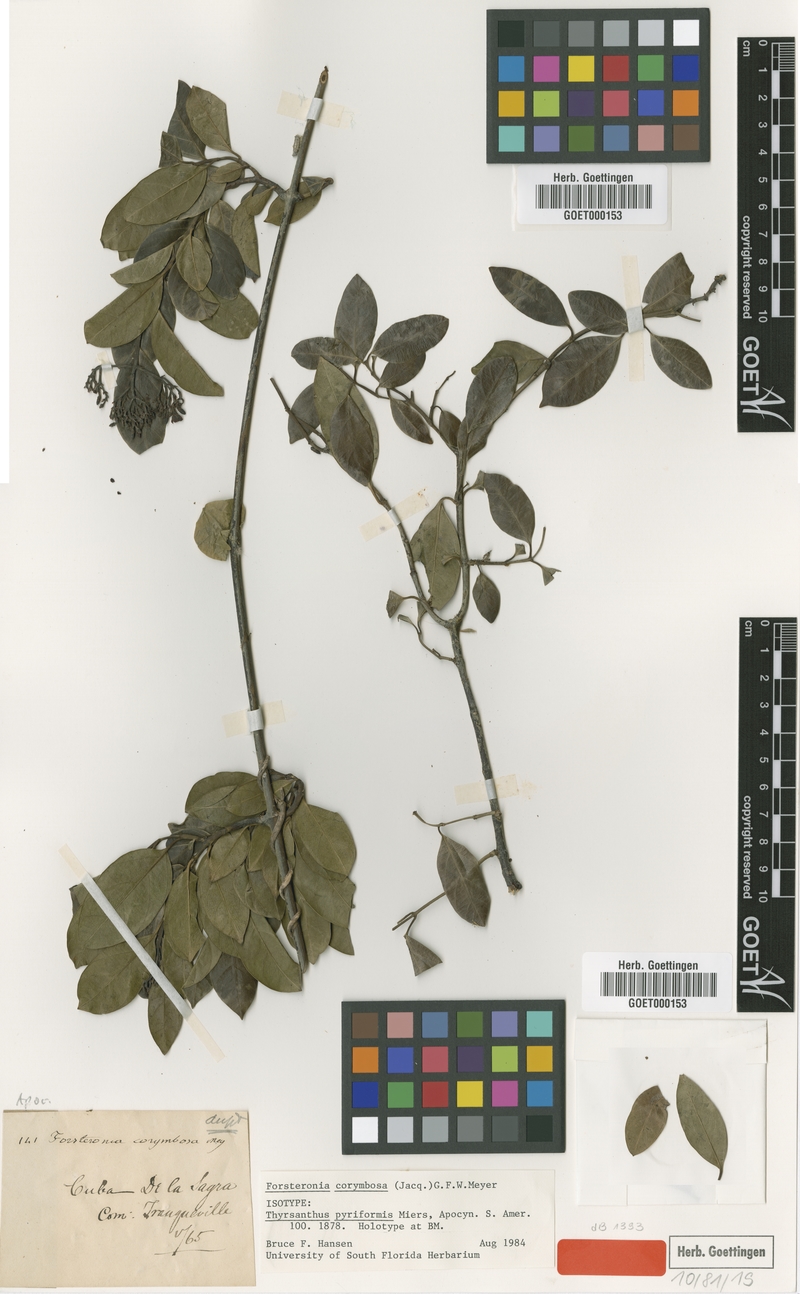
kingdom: Plantae
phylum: Tracheophyta
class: Magnoliopsida
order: Gentianales
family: Apocynaceae
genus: Pinochia
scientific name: Pinochia corymbosa
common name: Sanjuanera
